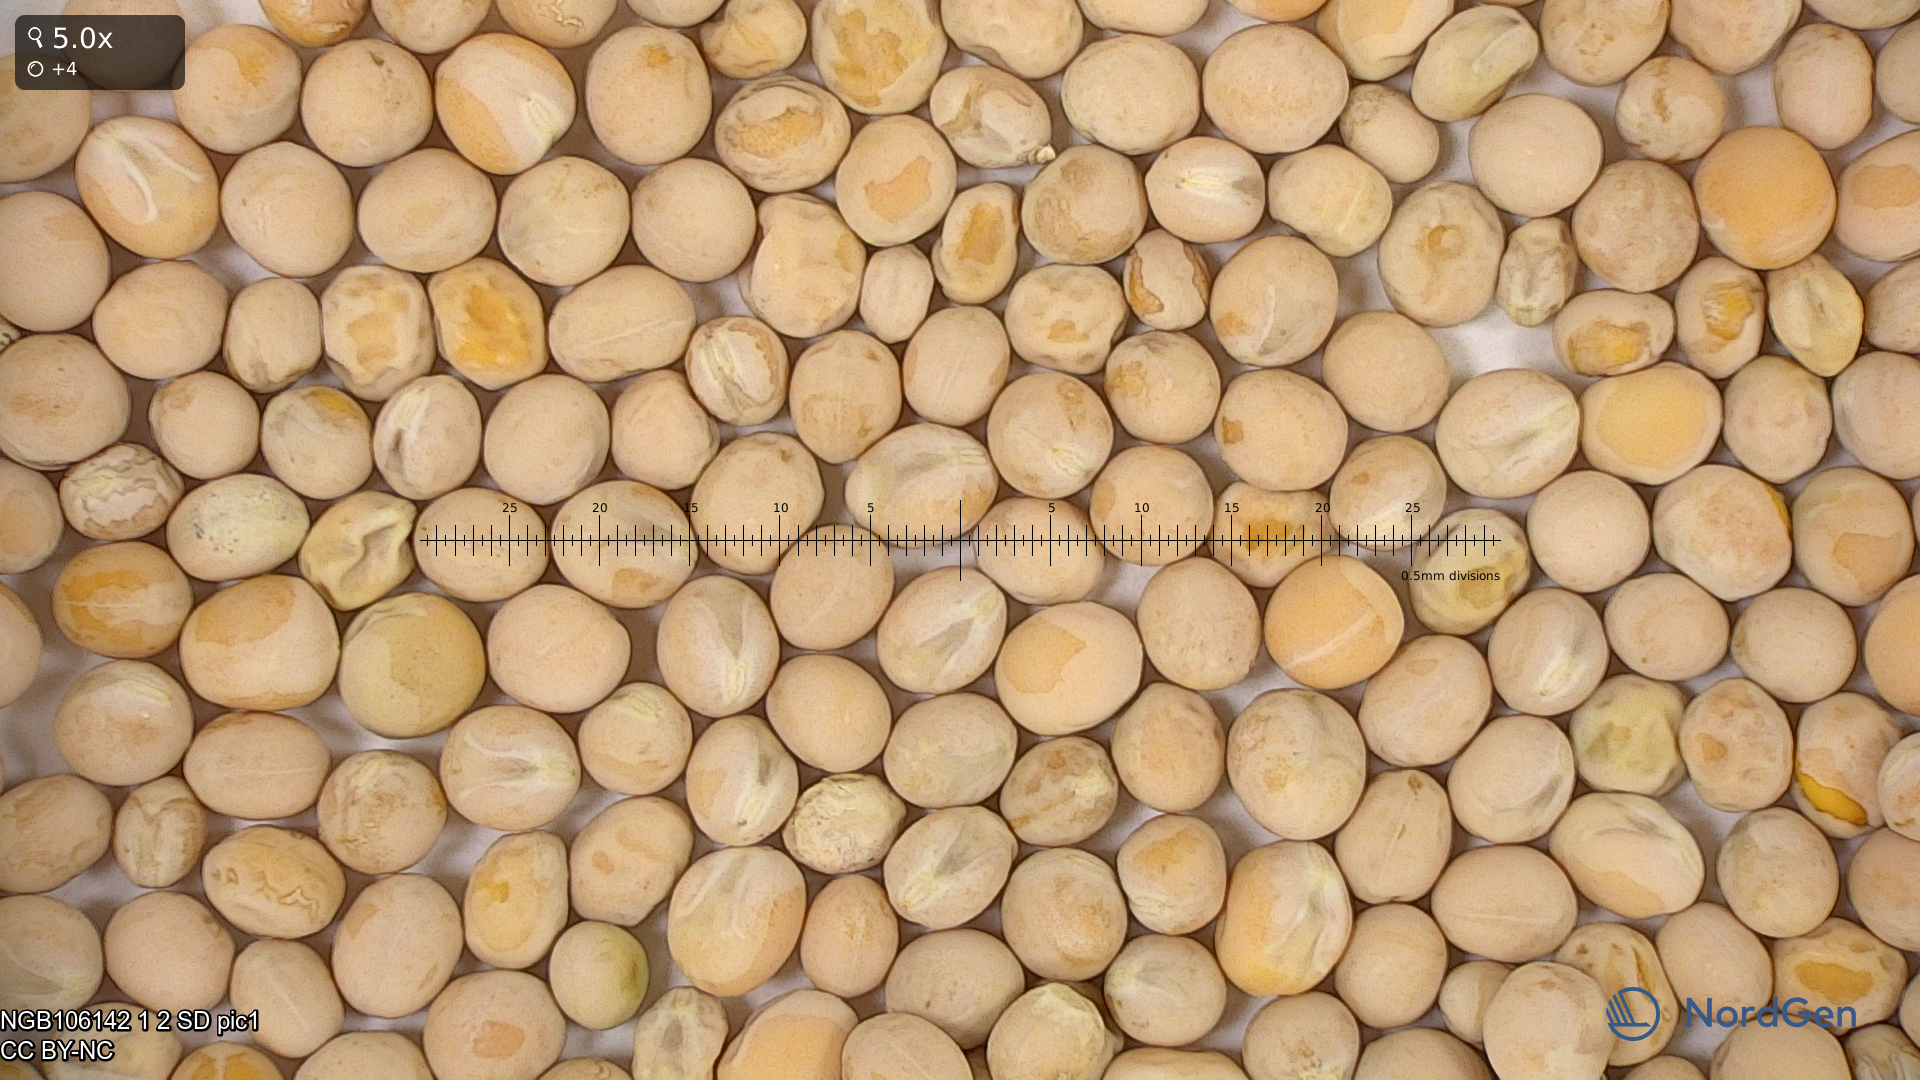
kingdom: Plantae
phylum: Tracheophyta
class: Magnoliopsida
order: Fabales
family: Fabaceae
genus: Lathyrus
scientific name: Lathyrus oleraceus
